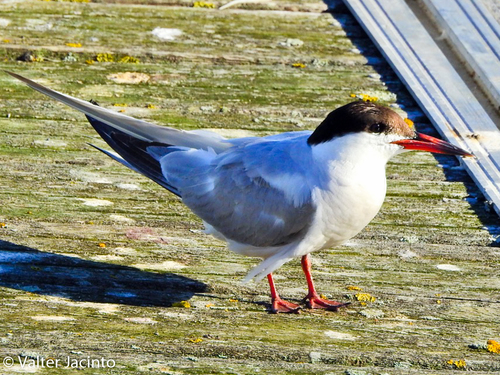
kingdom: Animalia
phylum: Chordata
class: Aves
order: Charadriiformes
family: Laridae
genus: Sterna
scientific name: Sterna hirundo
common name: Common tern
